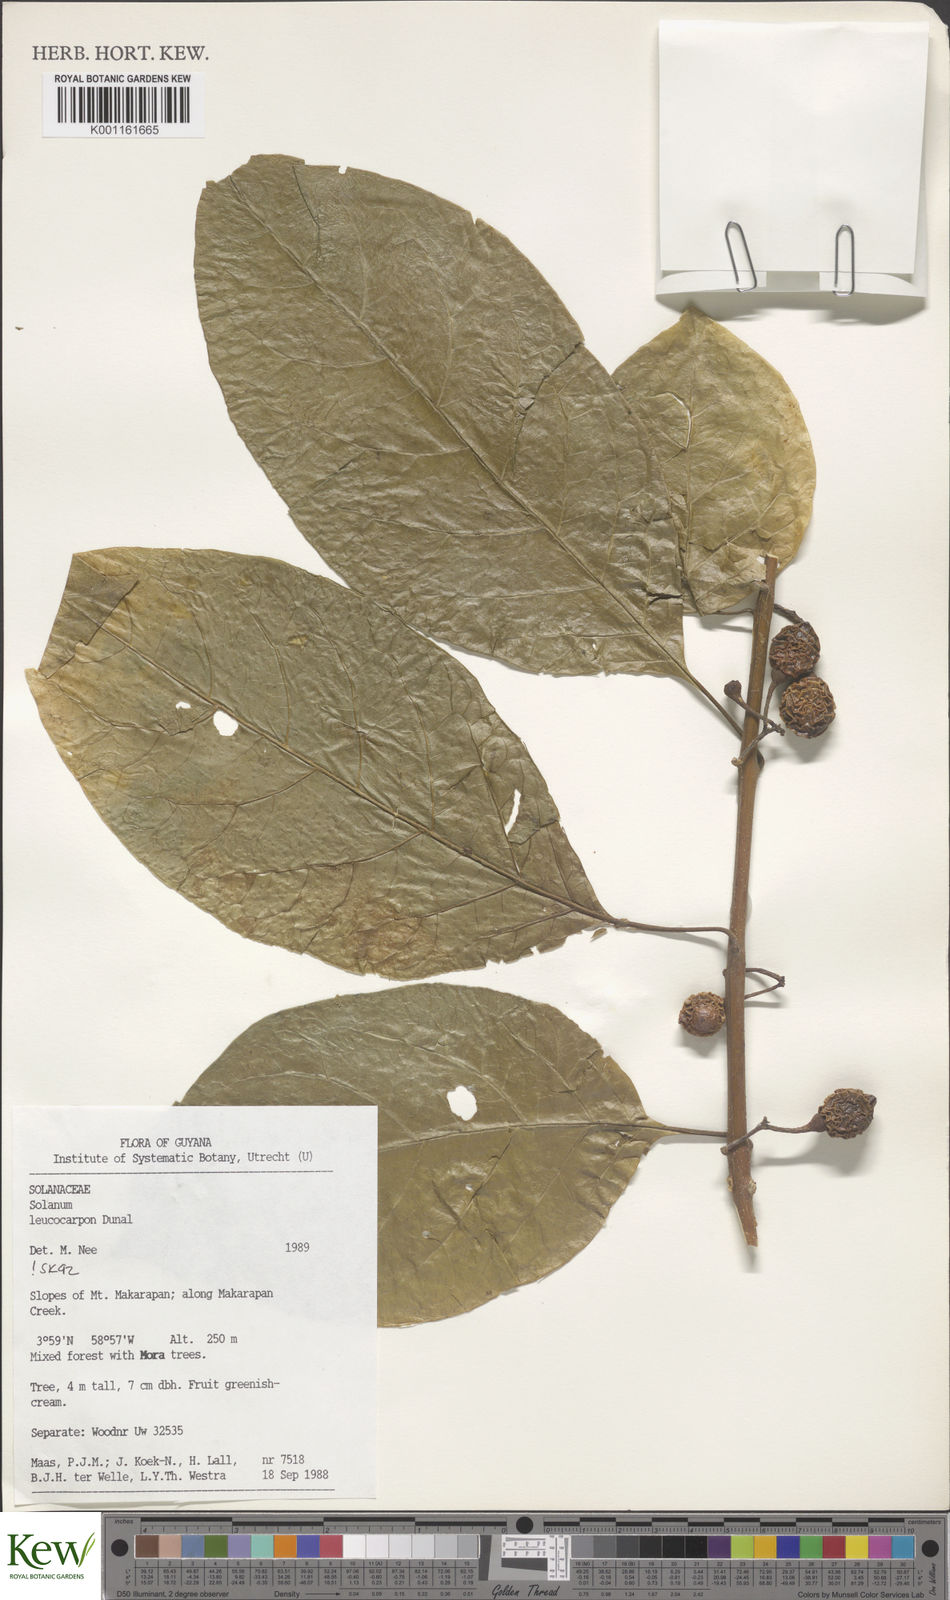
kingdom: Plantae
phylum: Tracheophyta
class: Magnoliopsida
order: Solanales
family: Solanaceae
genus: Solanum
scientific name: Solanum leucocarpon
